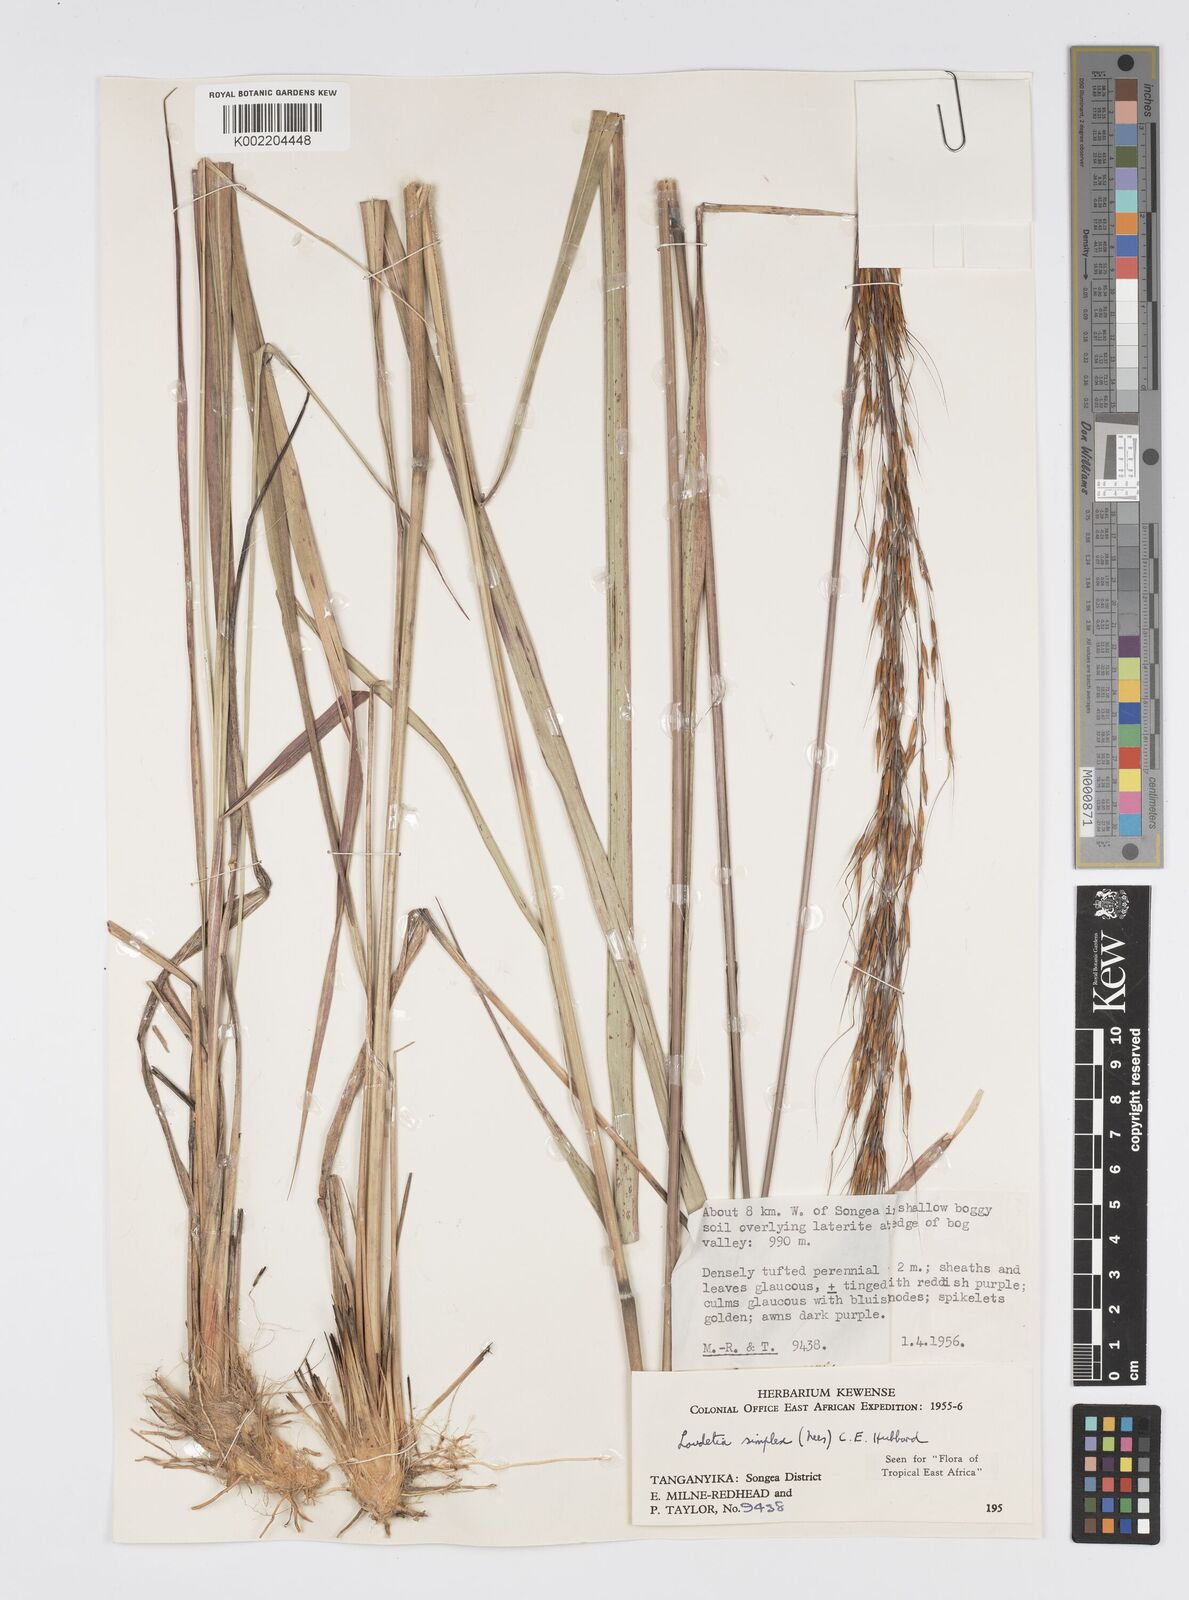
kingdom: Plantae
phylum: Tracheophyta
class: Liliopsida
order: Poales
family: Poaceae
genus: Loudetia
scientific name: Loudetia simplex
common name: Common russet grass
